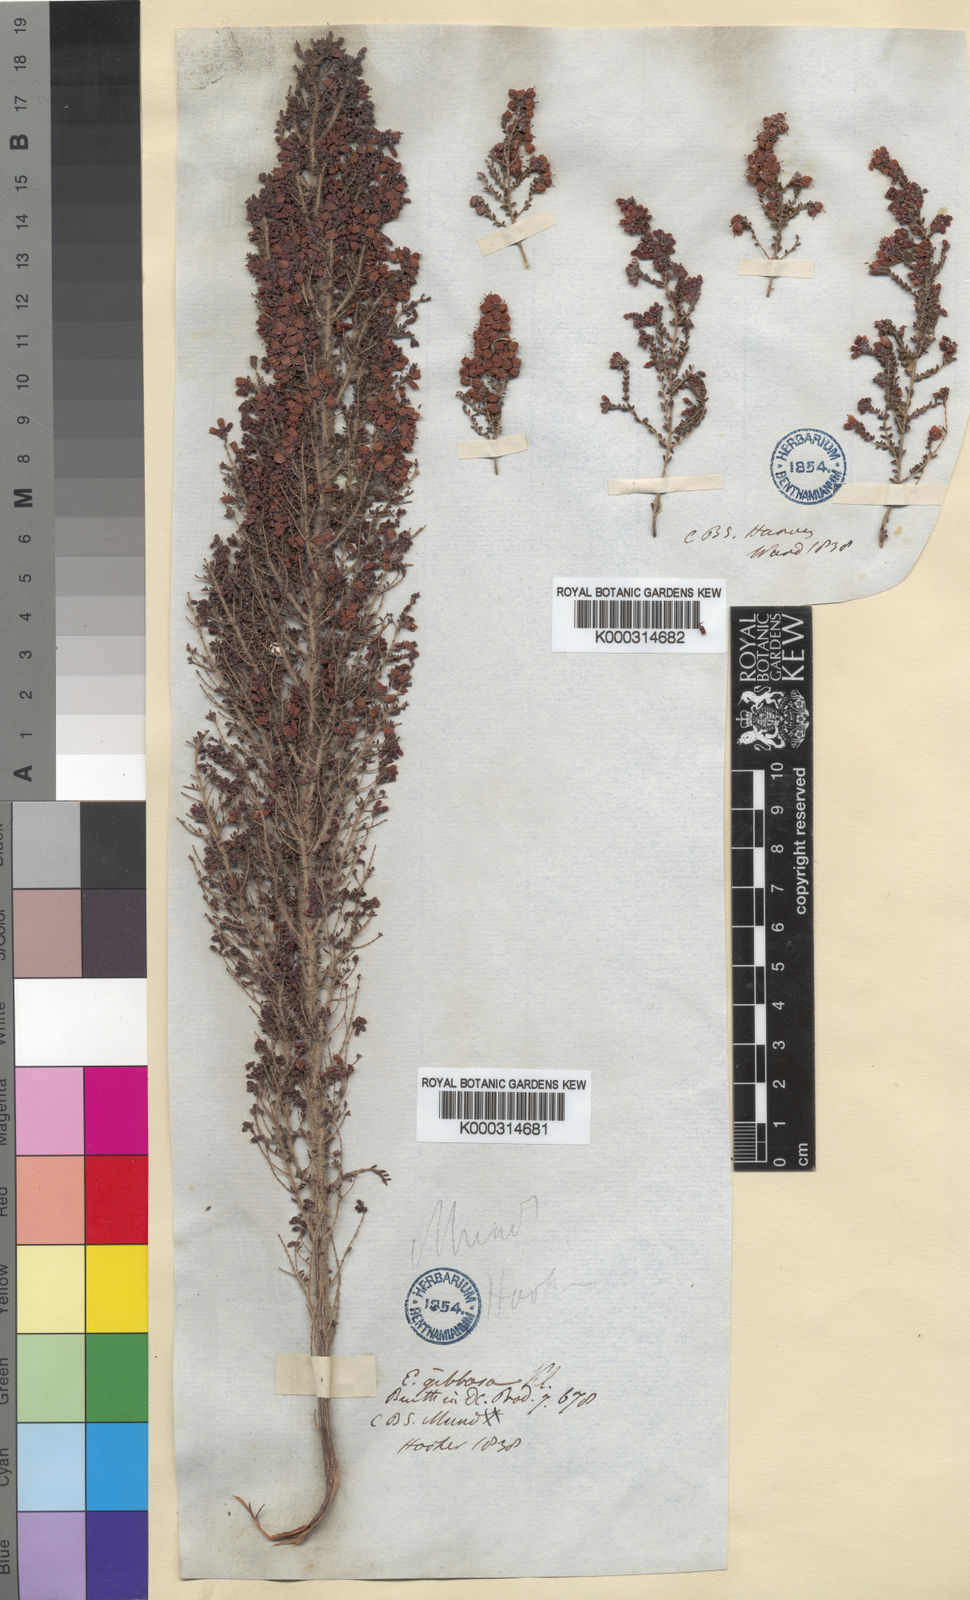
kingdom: Plantae
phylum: Tracheophyta
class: Magnoliopsida
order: Ericales
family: Ericaceae
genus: Erica
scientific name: Erica scabriuscula
